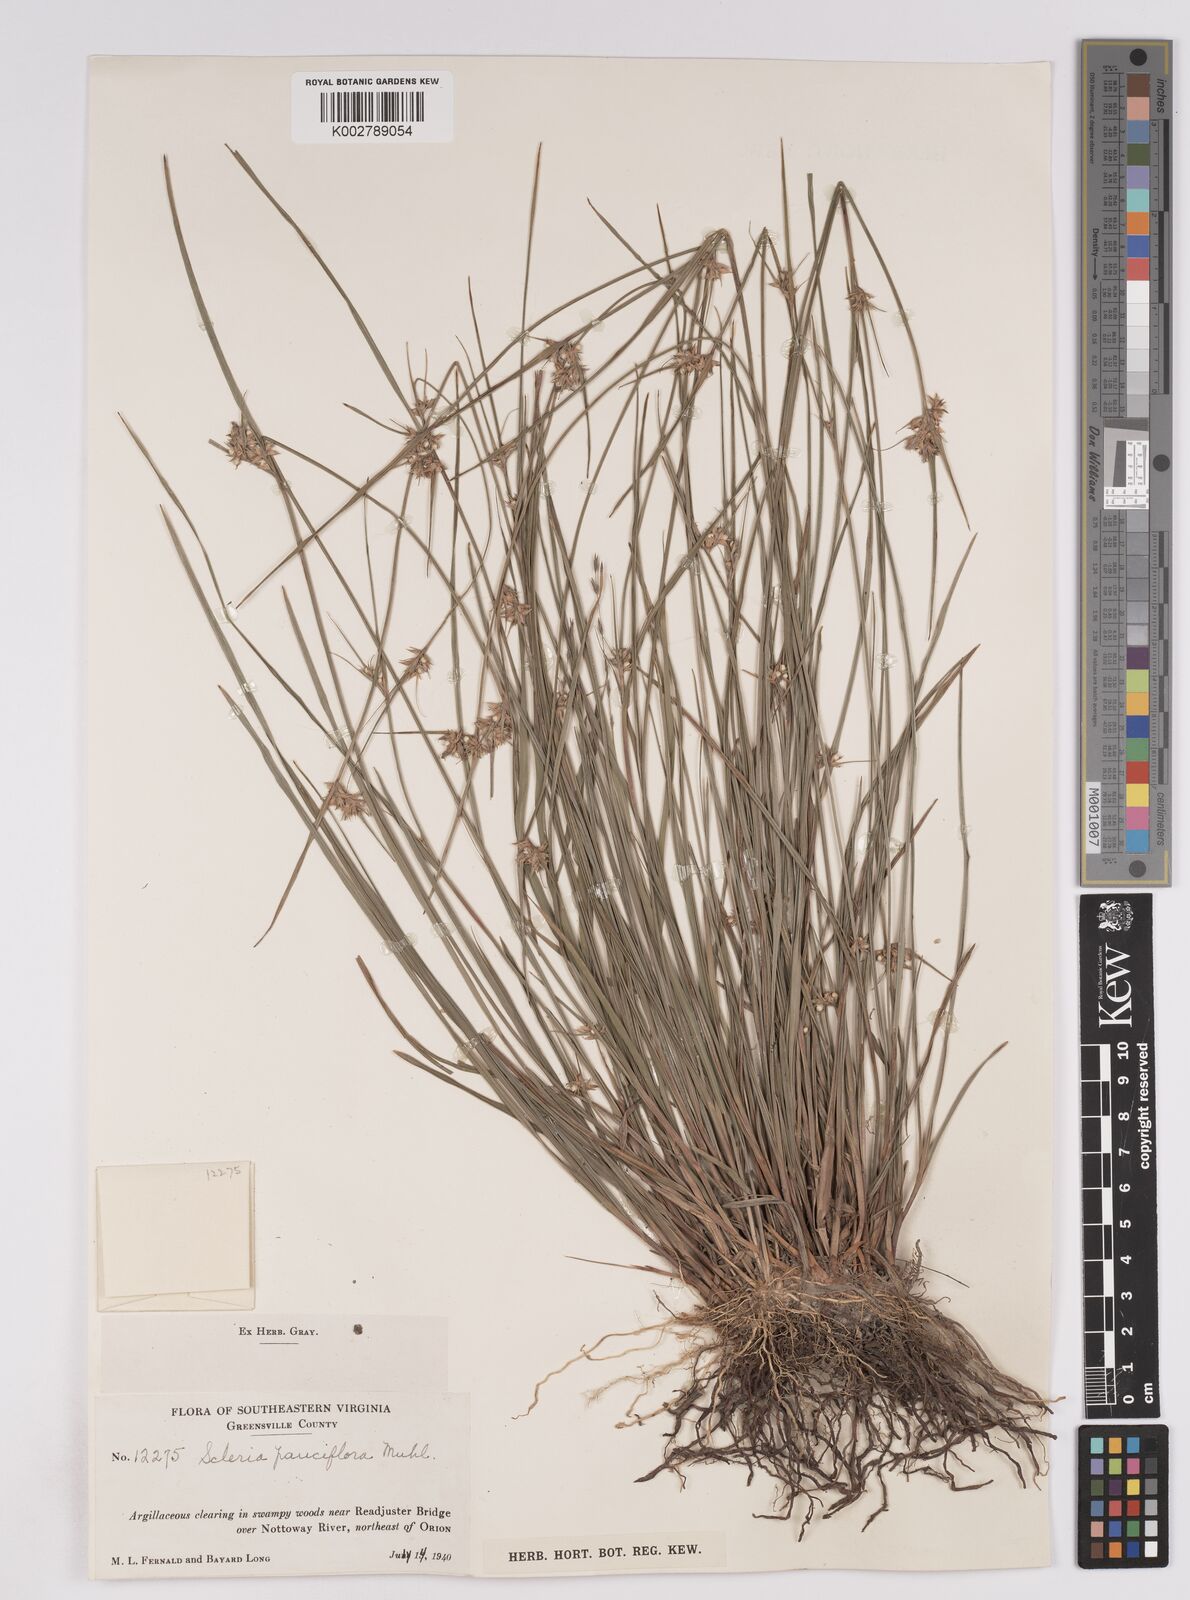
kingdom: Plantae
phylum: Tracheophyta
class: Liliopsida
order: Poales
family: Cyperaceae
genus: Scleria
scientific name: Scleria pauciflora
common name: Few-flowered nutrush
